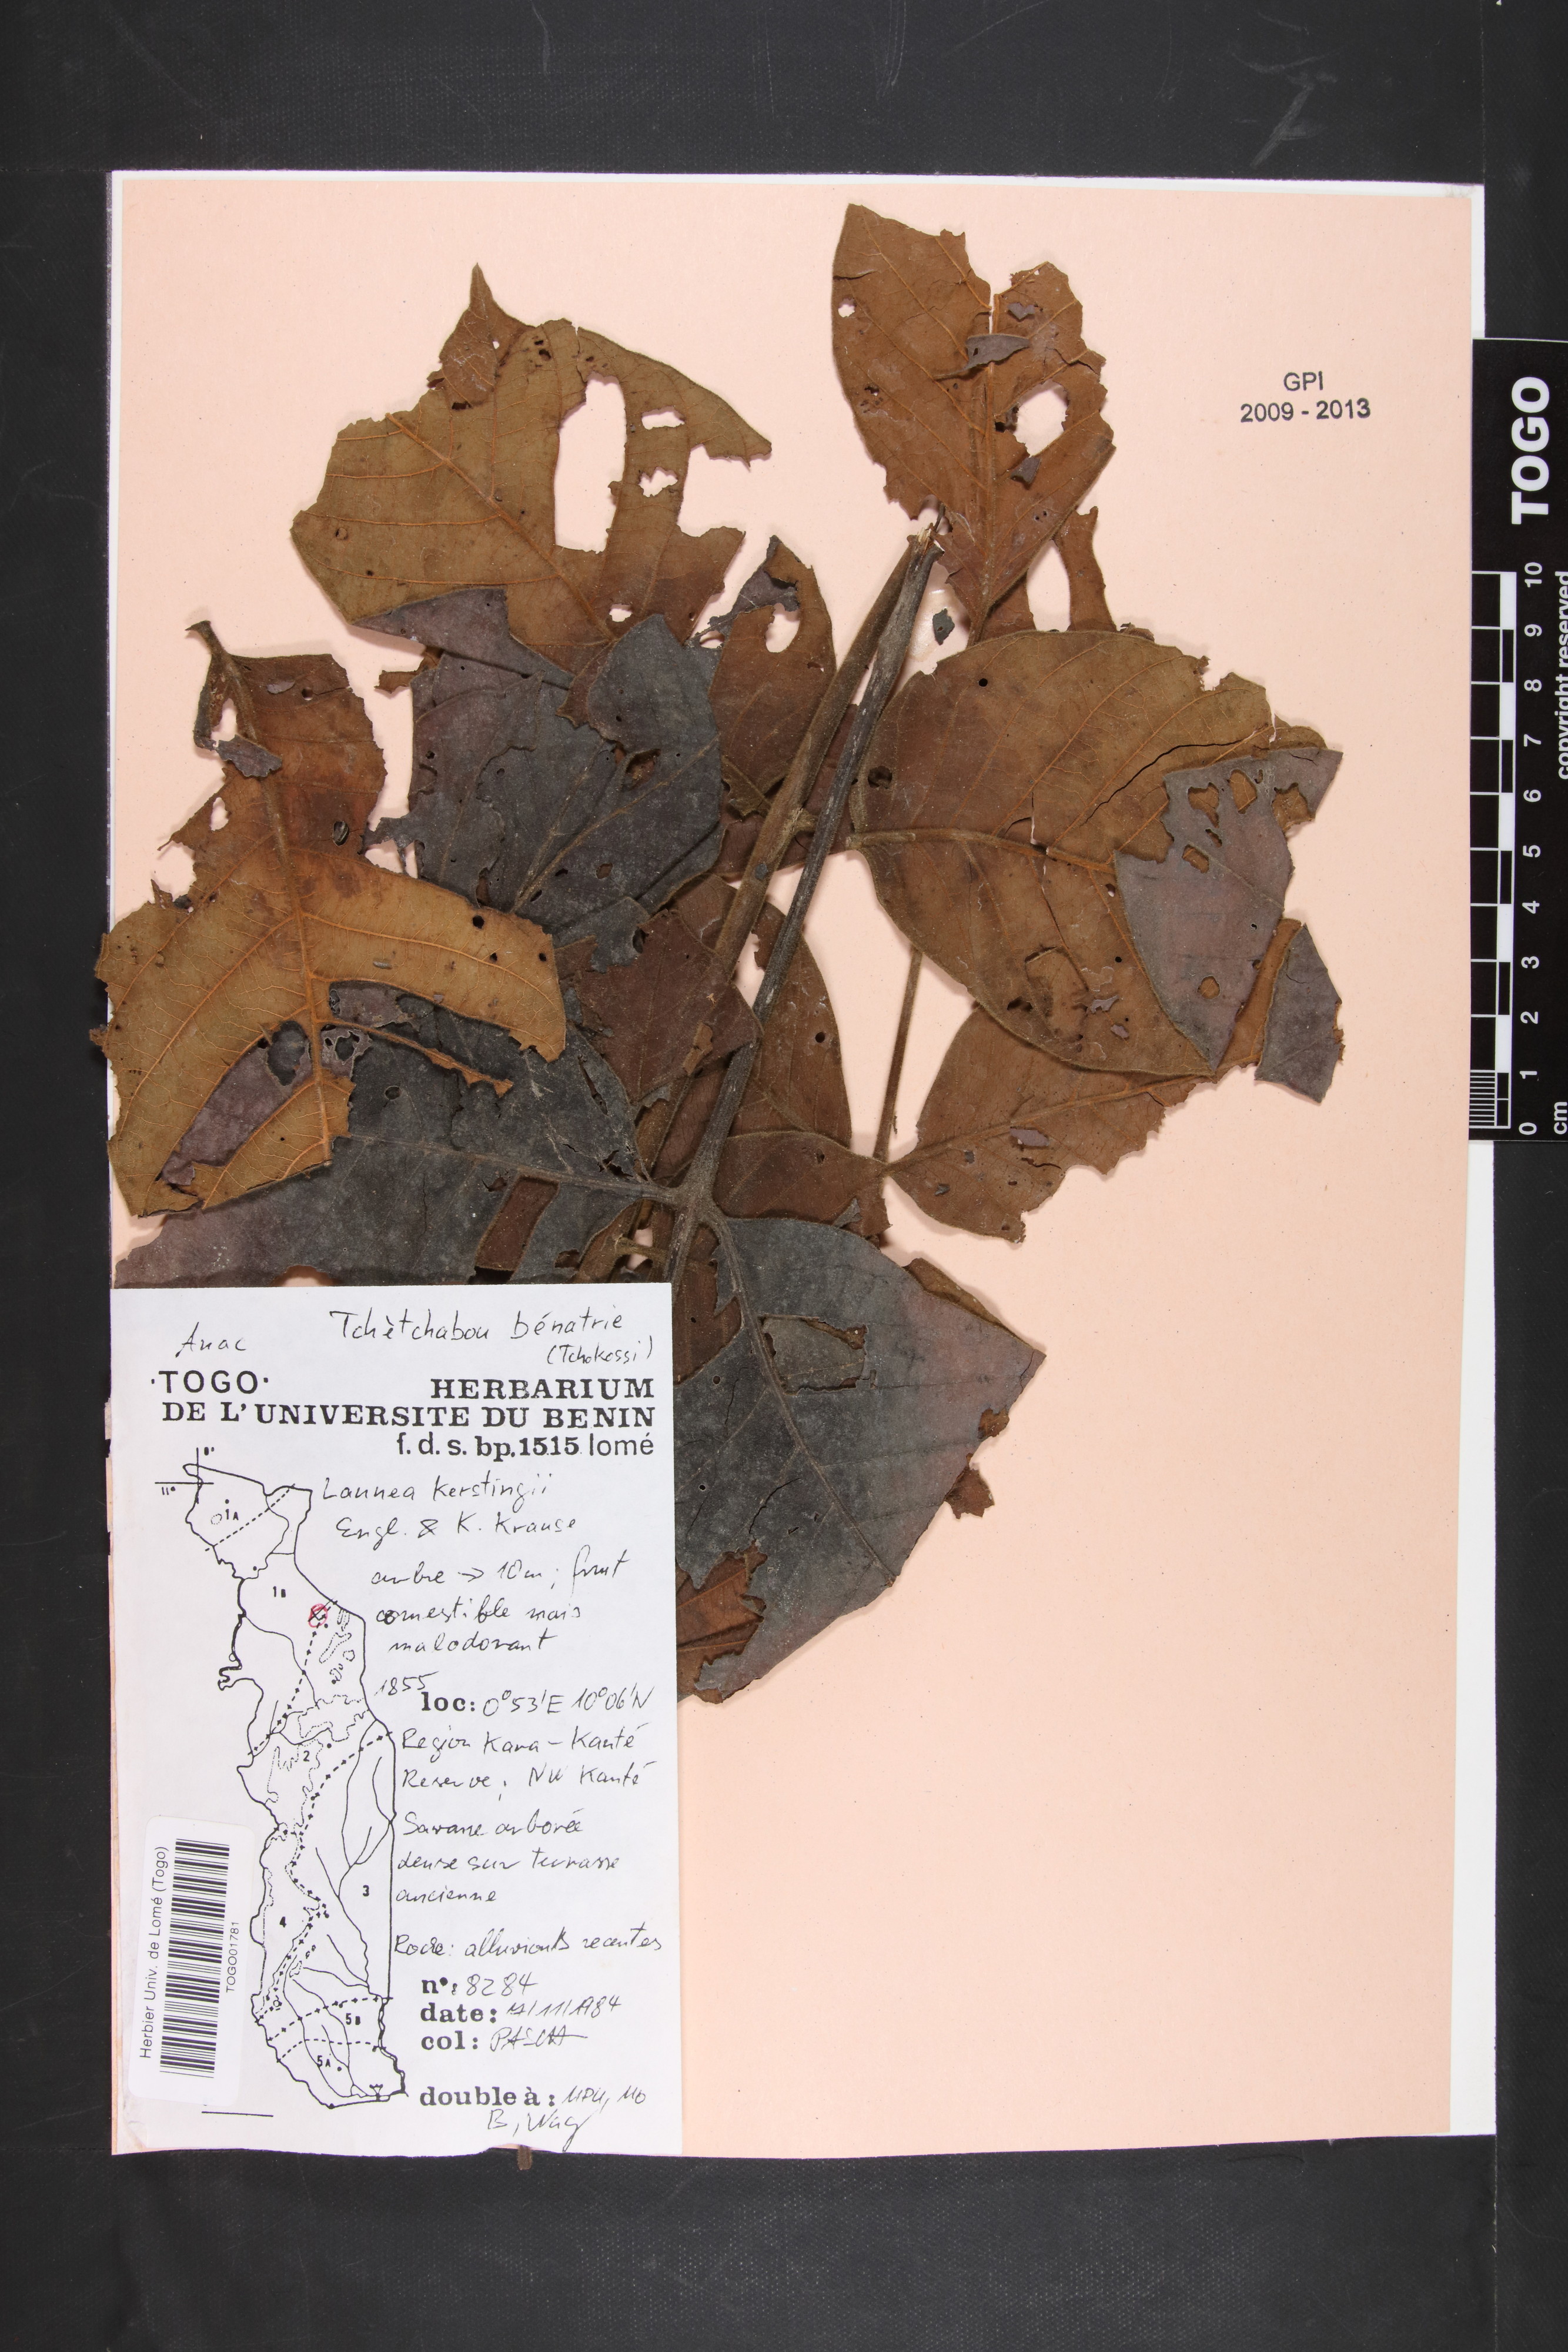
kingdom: Plantae
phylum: Tracheophyta
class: Magnoliopsida
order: Sapindales
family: Anacardiaceae
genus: Lannea
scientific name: Lannea barteri
